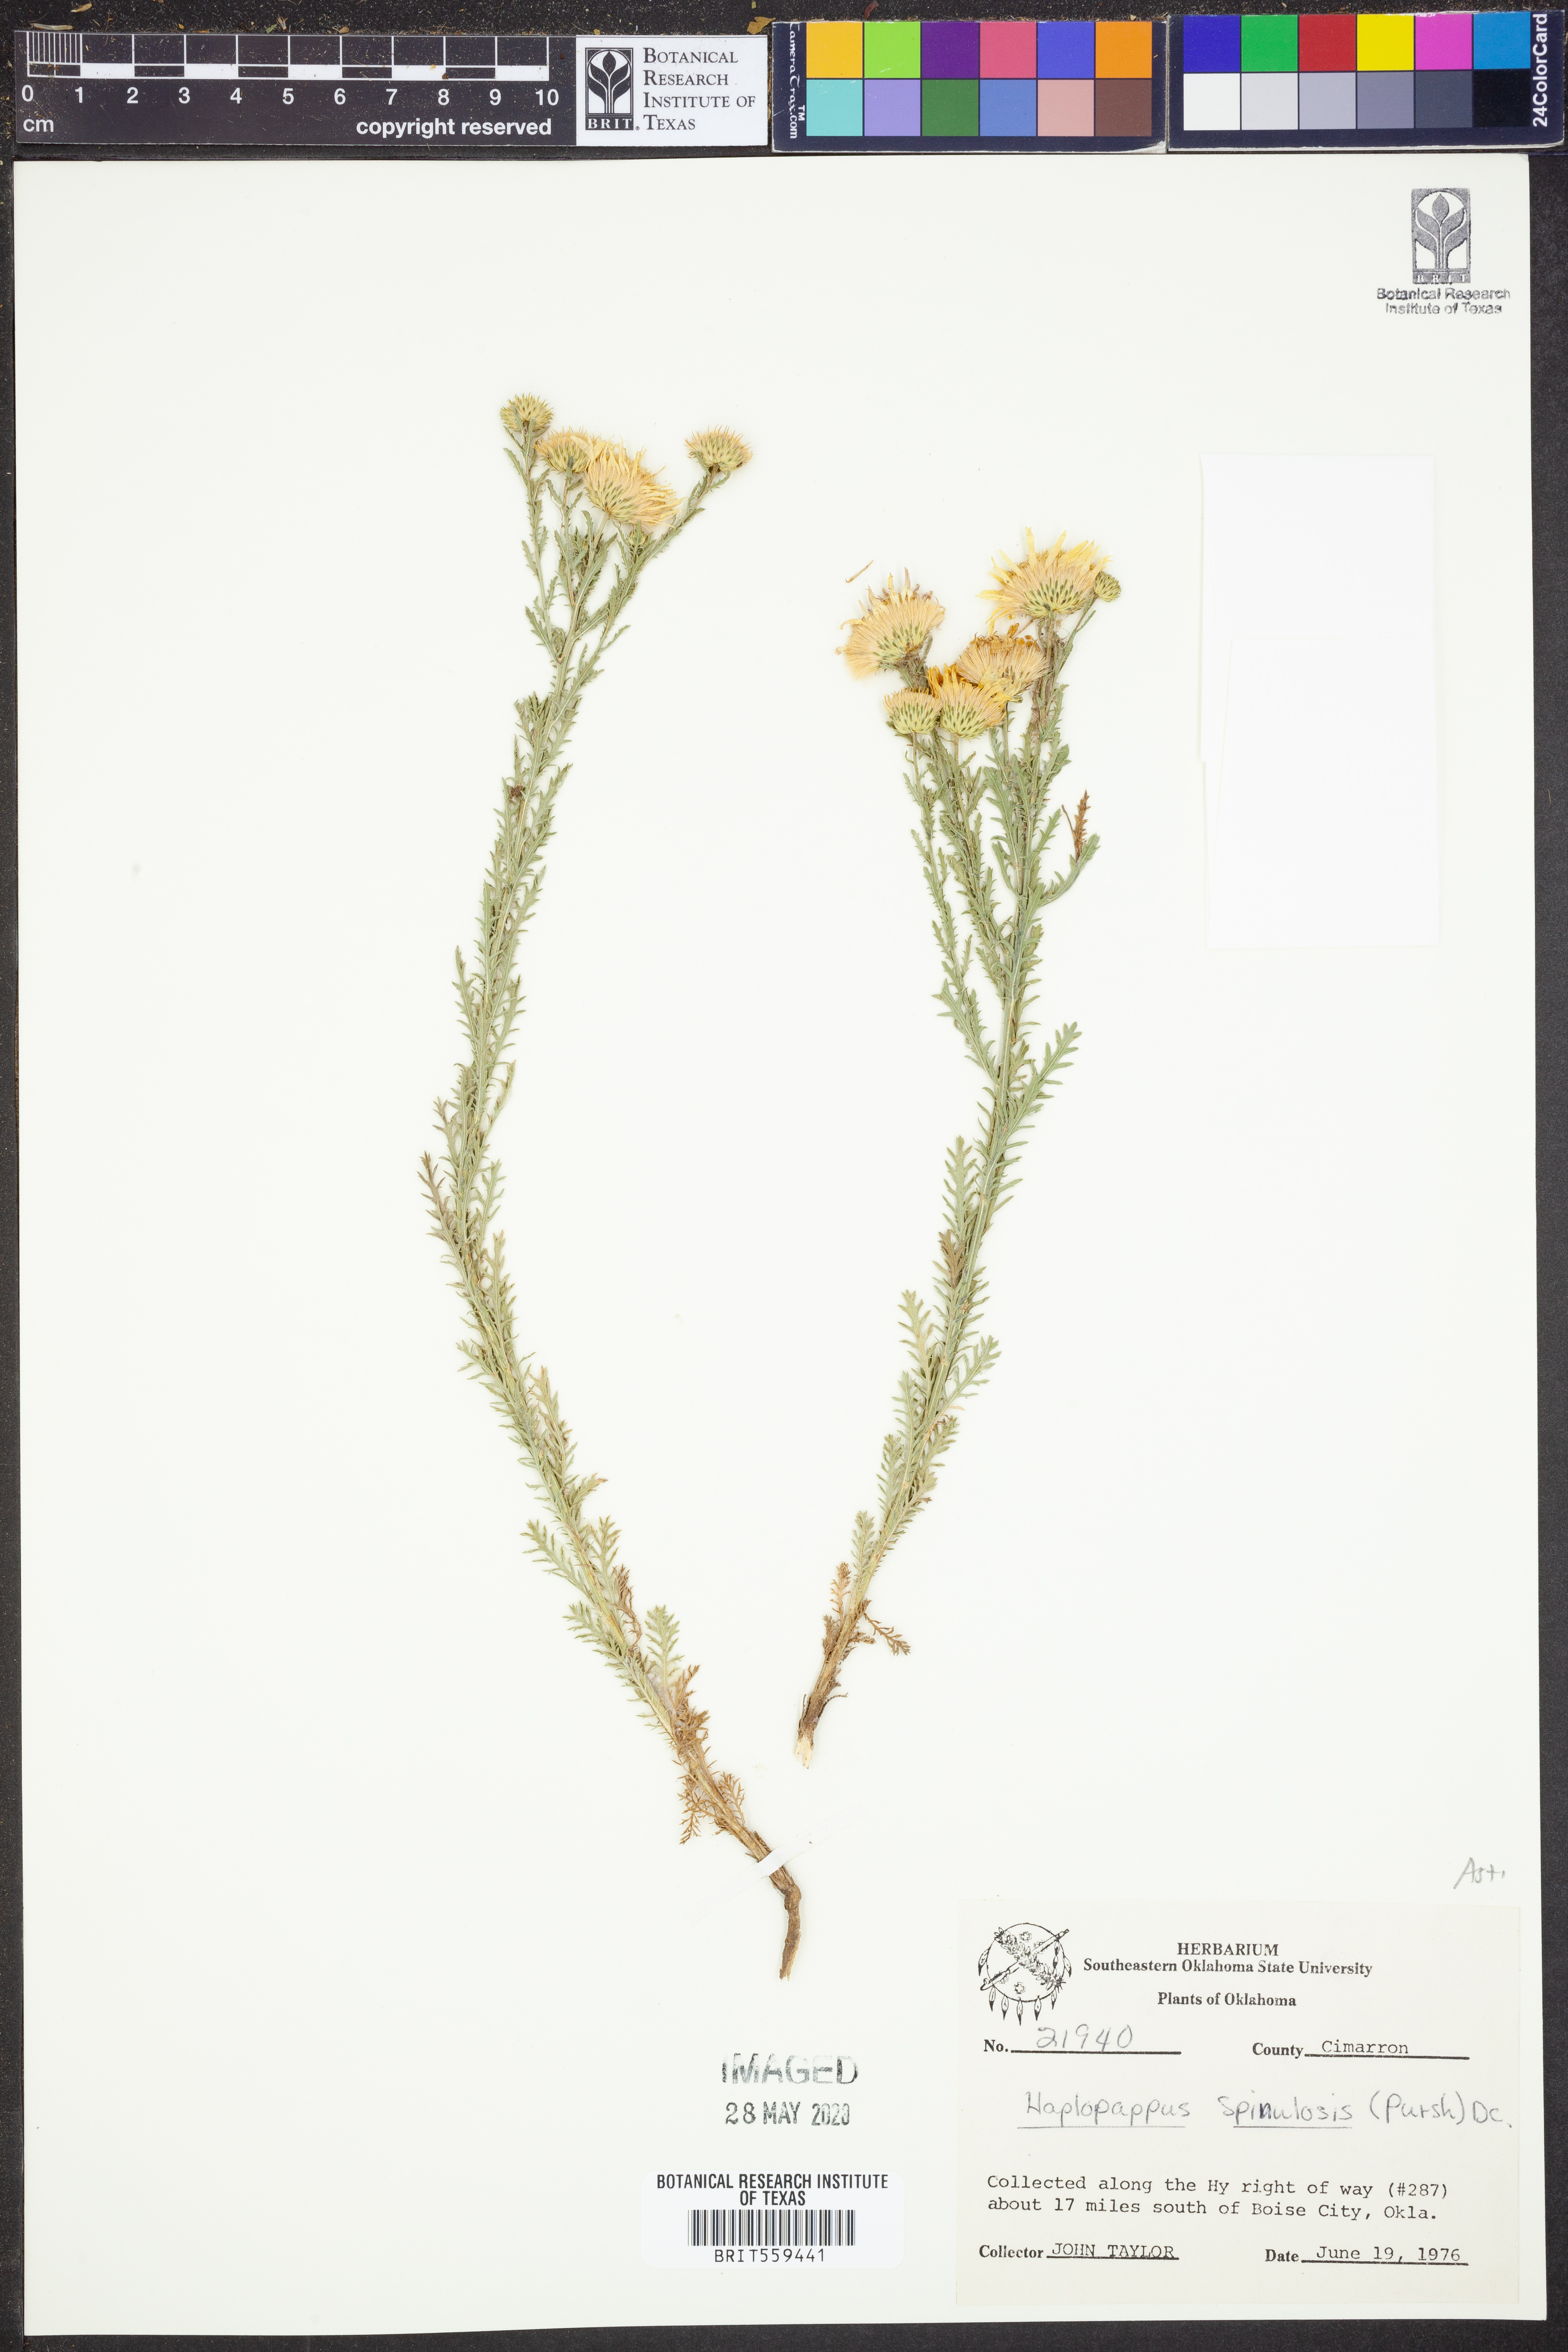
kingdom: Plantae
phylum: Tracheophyta
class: Magnoliopsida
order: Asterales
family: Asteraceae
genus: Xanthisma
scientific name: Xanthisma spinulosum
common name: Spiny goldenweed
